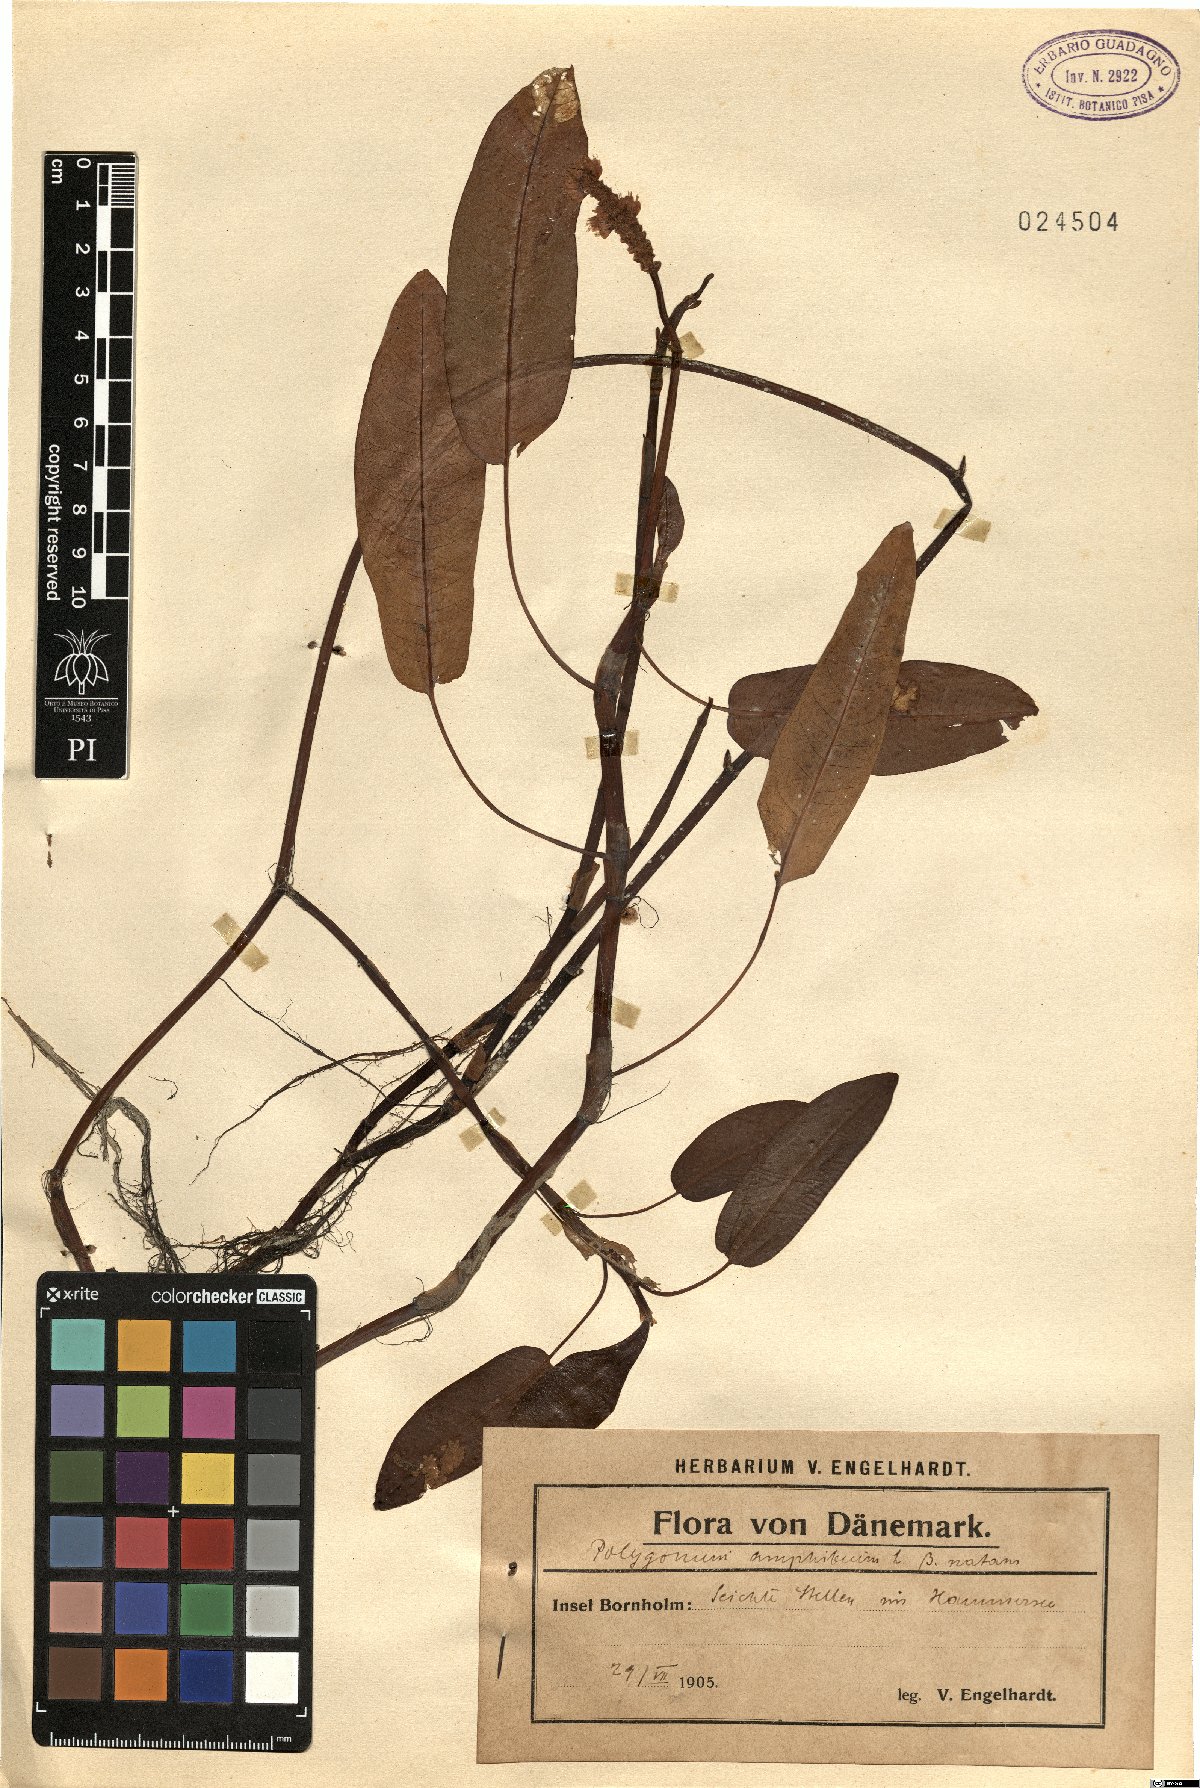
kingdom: Plantae
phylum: Tracheophyta
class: Magnoliopsida
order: Caryophyllales
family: Polygonaceae
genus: Persicaria
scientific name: Persicaria amphibia
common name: Amphibious bistort
